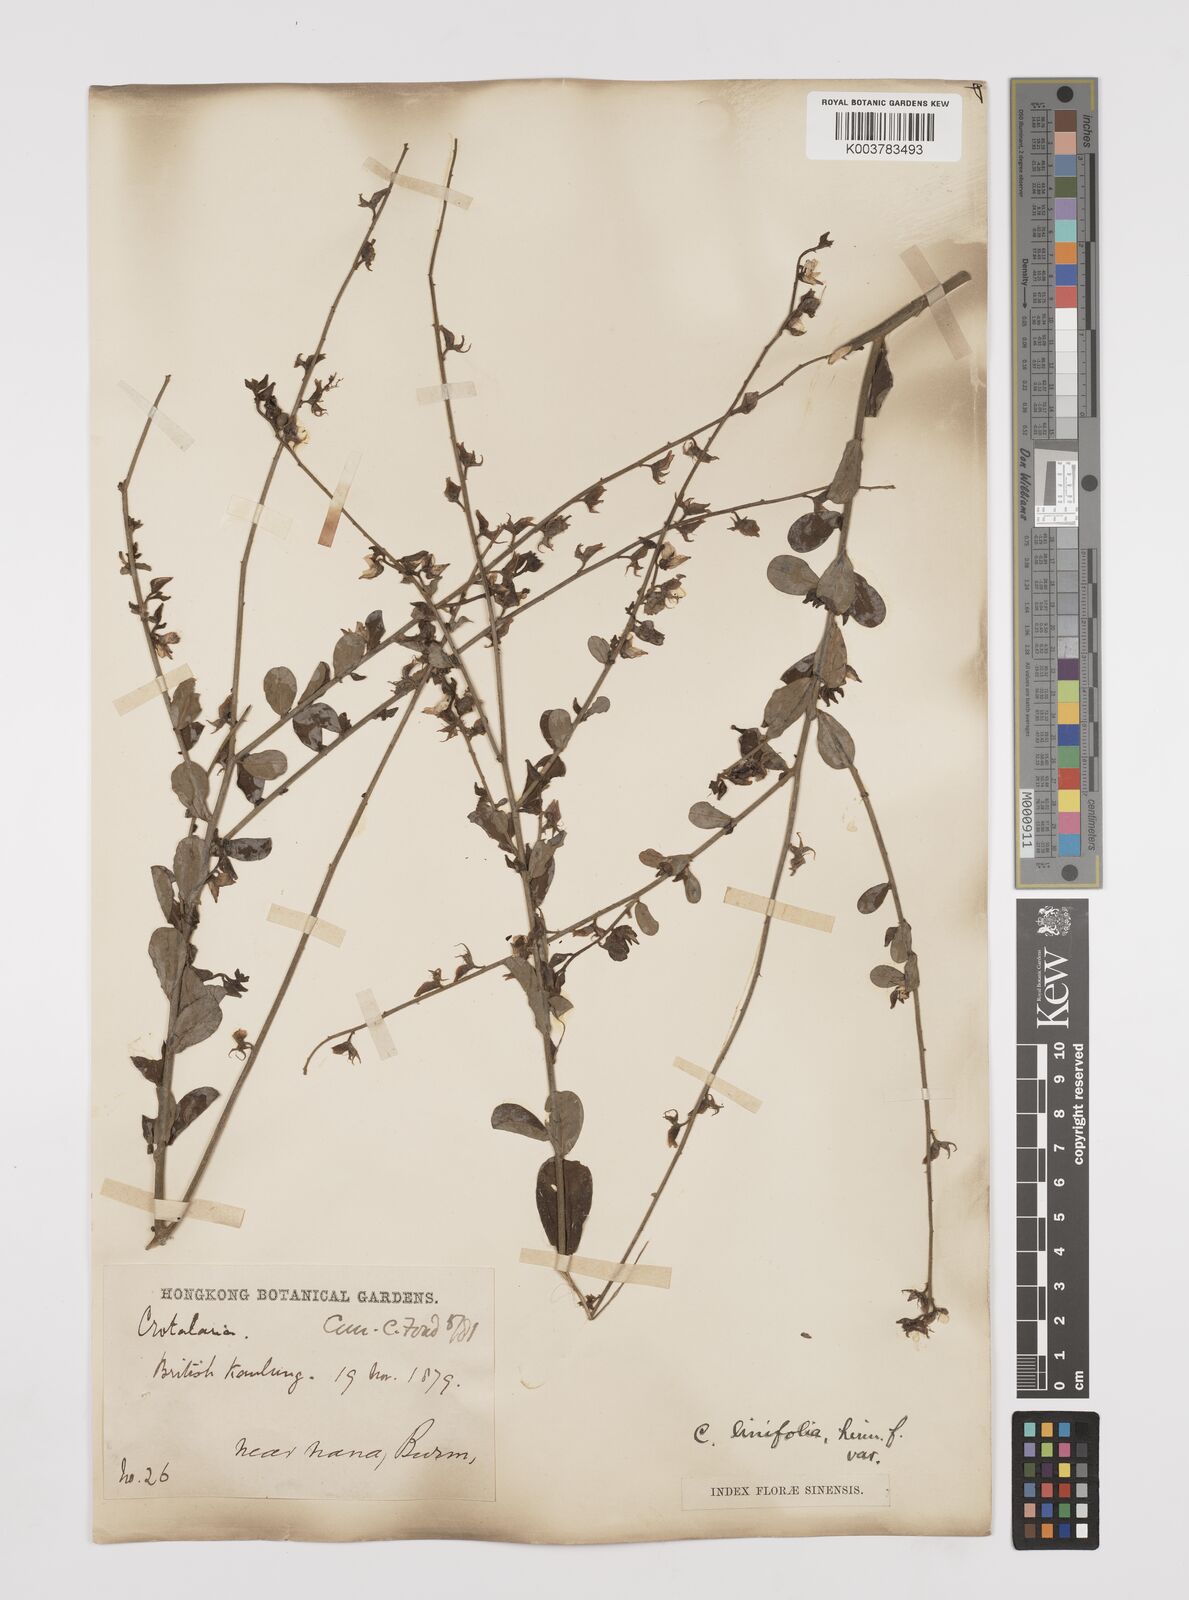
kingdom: Plantae
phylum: Tracheophyta
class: Magnoliopsida
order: Fabales
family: Fabaceae
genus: Crotalaria
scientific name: Crotalaria linifolia
